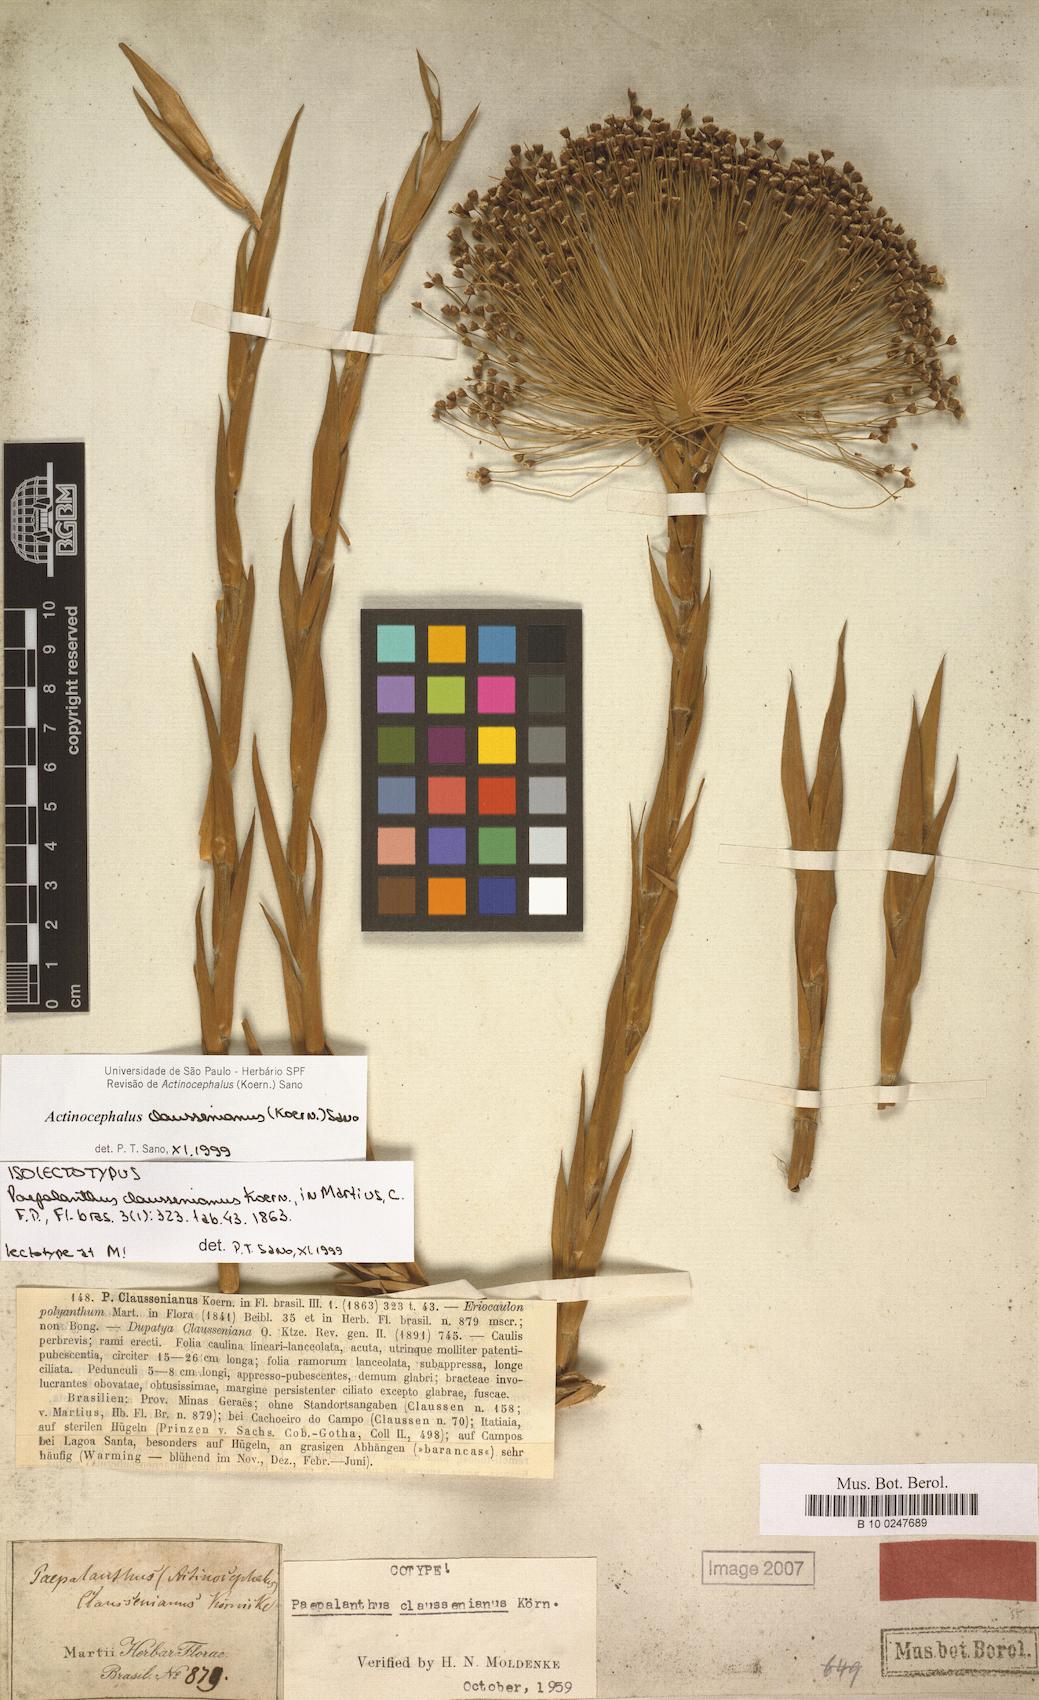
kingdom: Plantae
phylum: Tracheophyta
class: Liliopsida
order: Poales
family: Eriocaulaceae
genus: Paepalanthus
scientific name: Paepalanthus claussenianus
